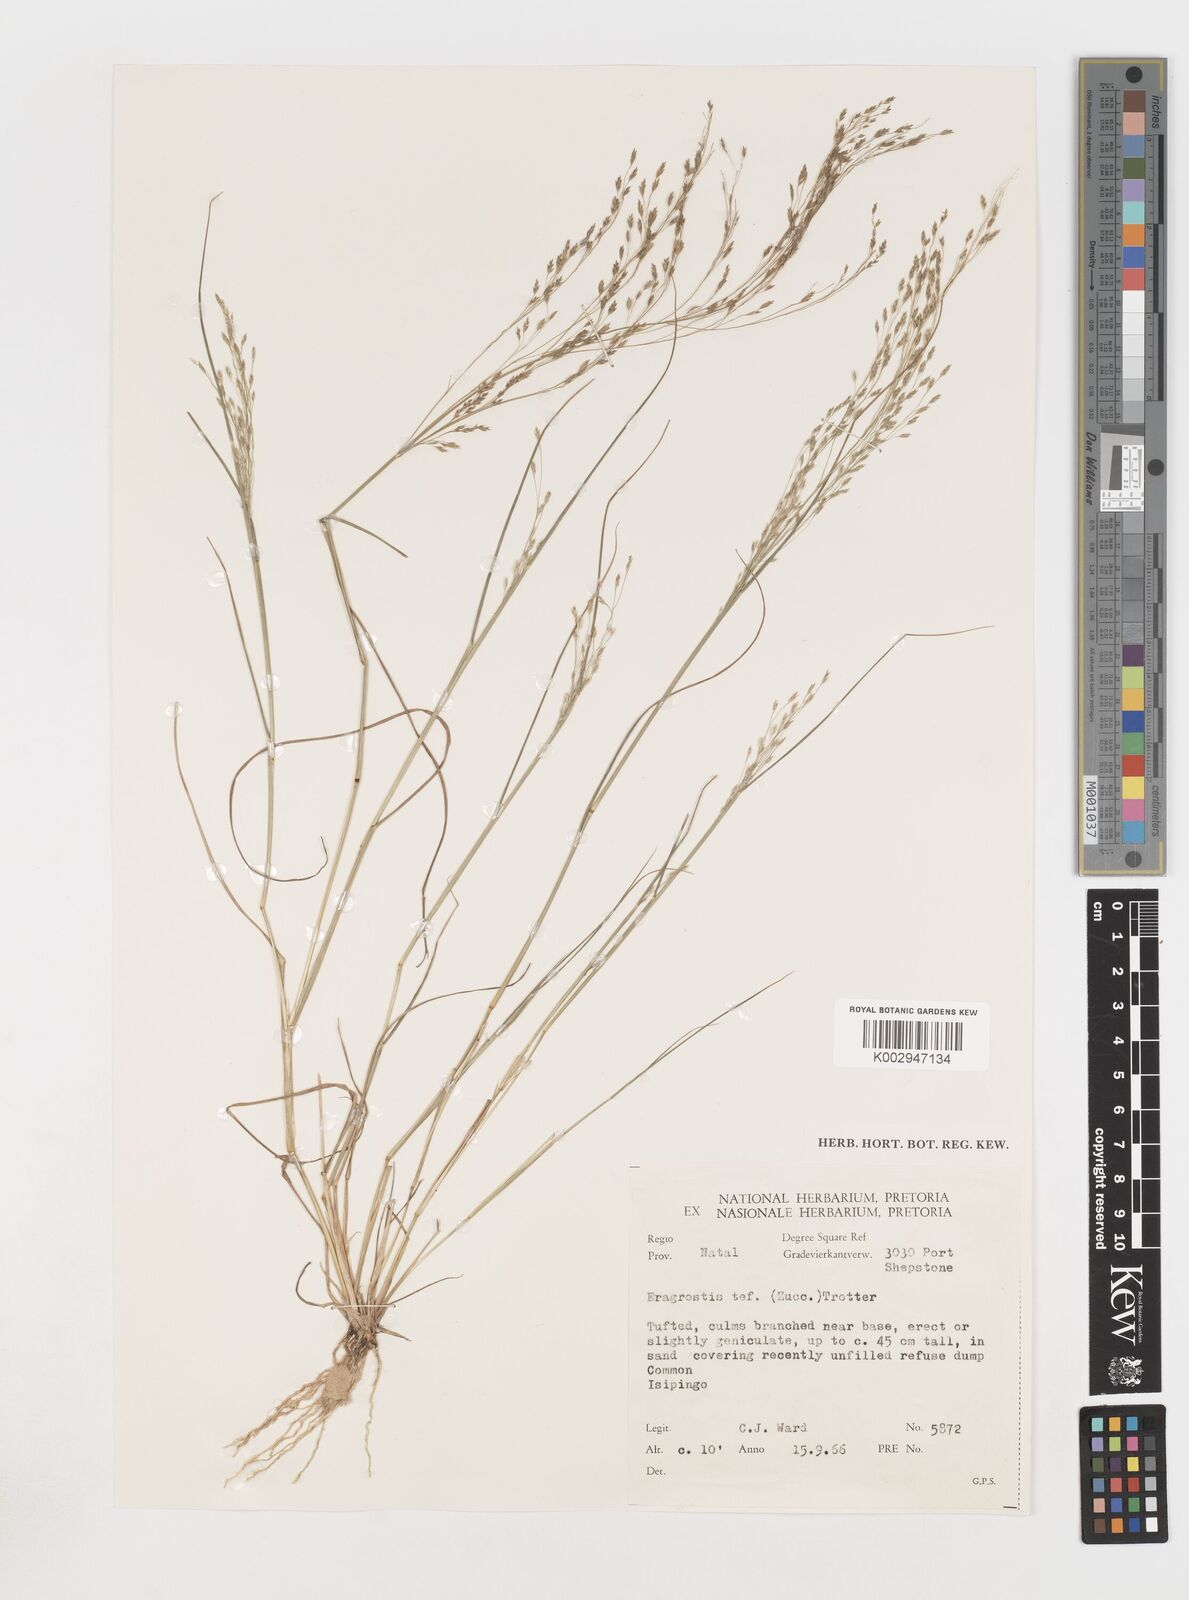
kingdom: Plantae
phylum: Tracheophyta
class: Liliopsida
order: Poales
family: Poaceae
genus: Eragrostis
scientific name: Eragrostis tef
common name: Teff
